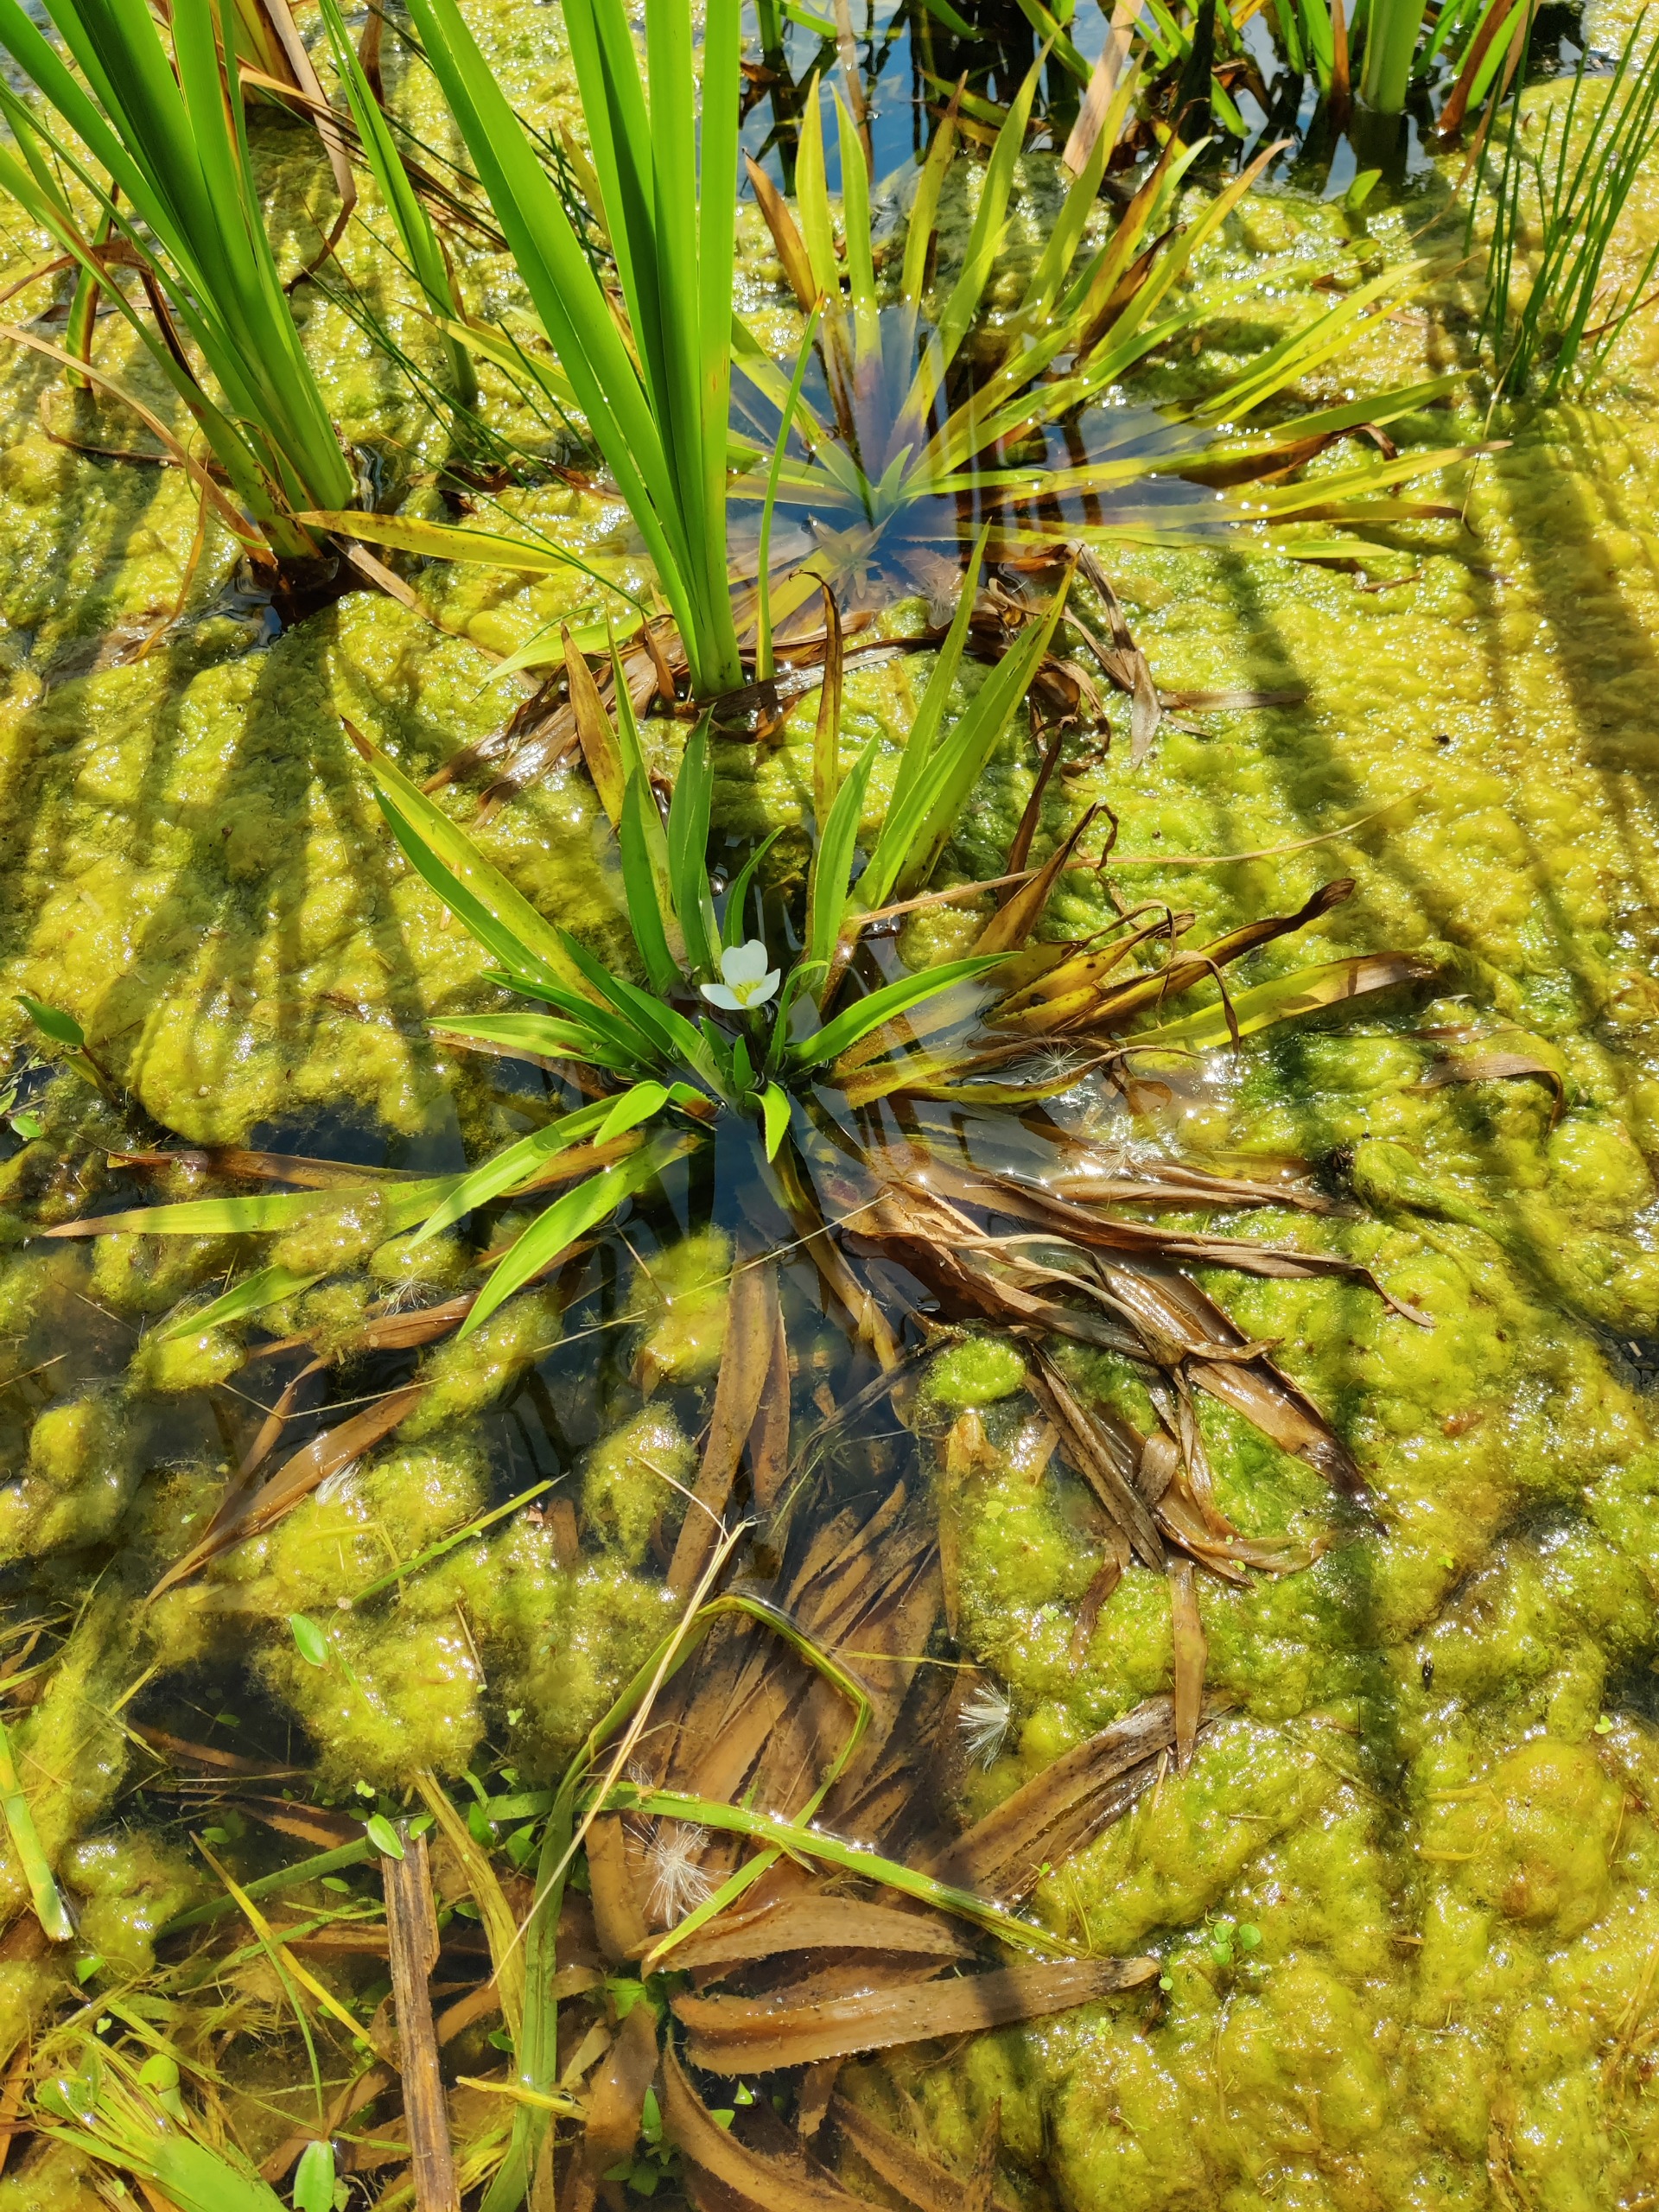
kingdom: Plantae
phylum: Tracheophyta
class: Liliopsida
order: Alismatales
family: Hydrocharitaceae
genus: Stratiotes
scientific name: Stratiotes aloides
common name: Krebseklo
